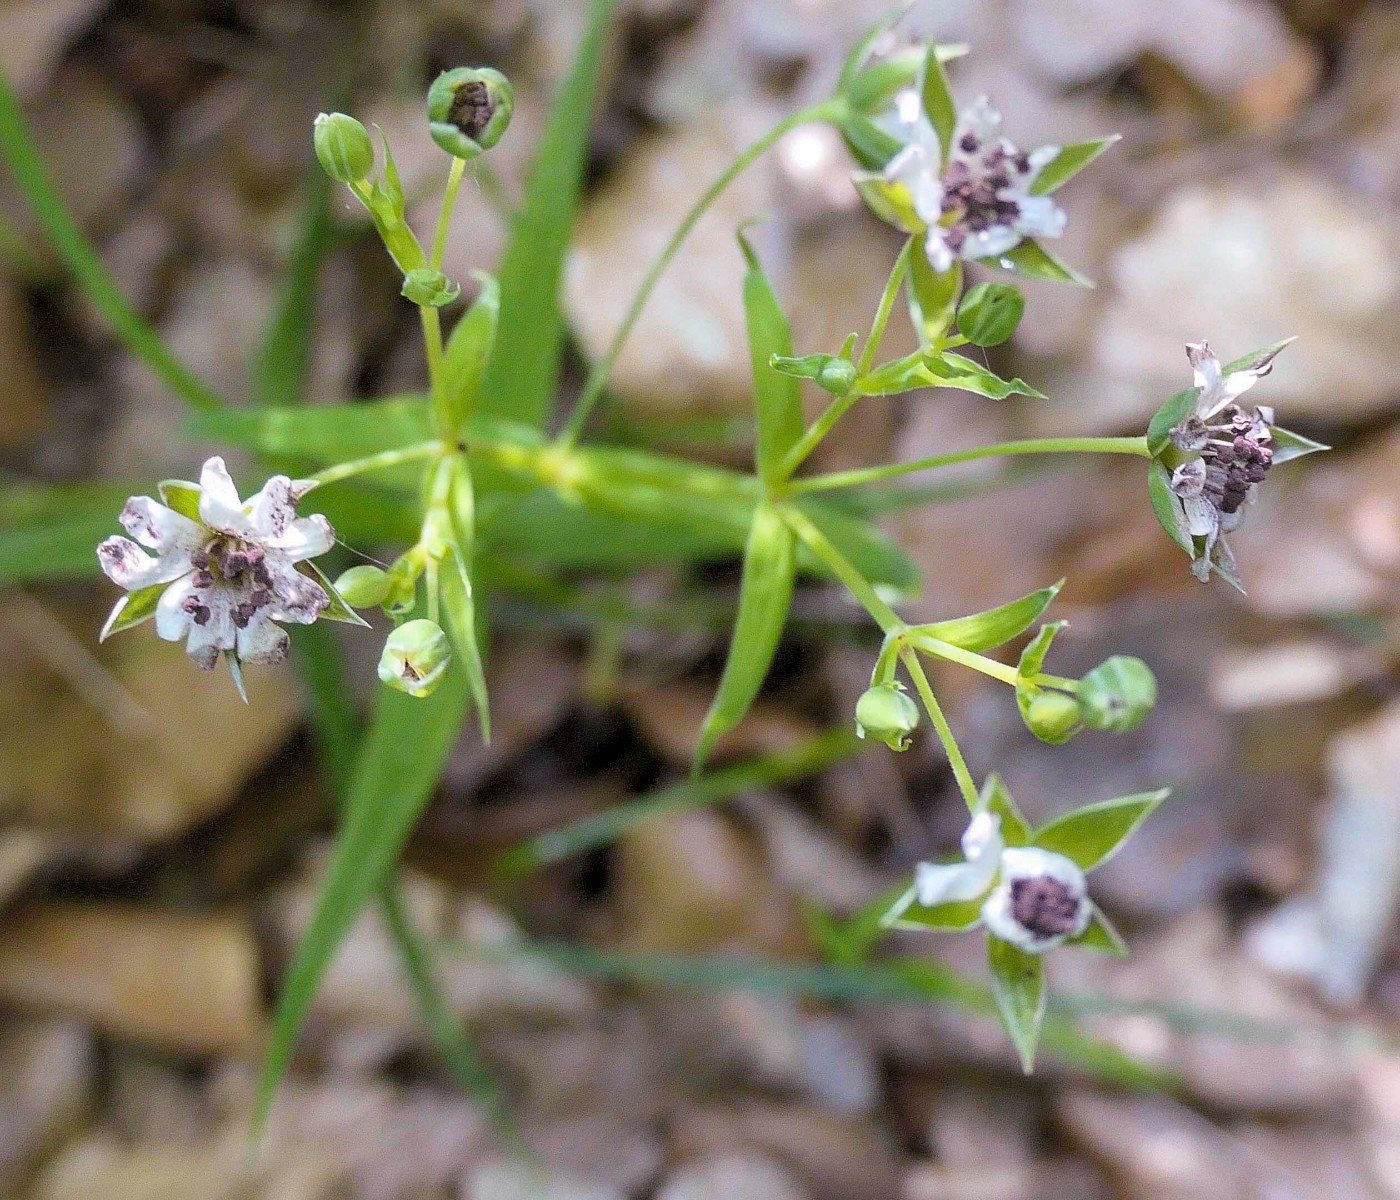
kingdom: Fungi
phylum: Basidiomycota
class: Microbotryomycetes
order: Microbotryales
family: Microbotryaceae
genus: Microbotryum
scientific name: Microbotryum stellariae
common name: fladstjerne-støvbladrust
